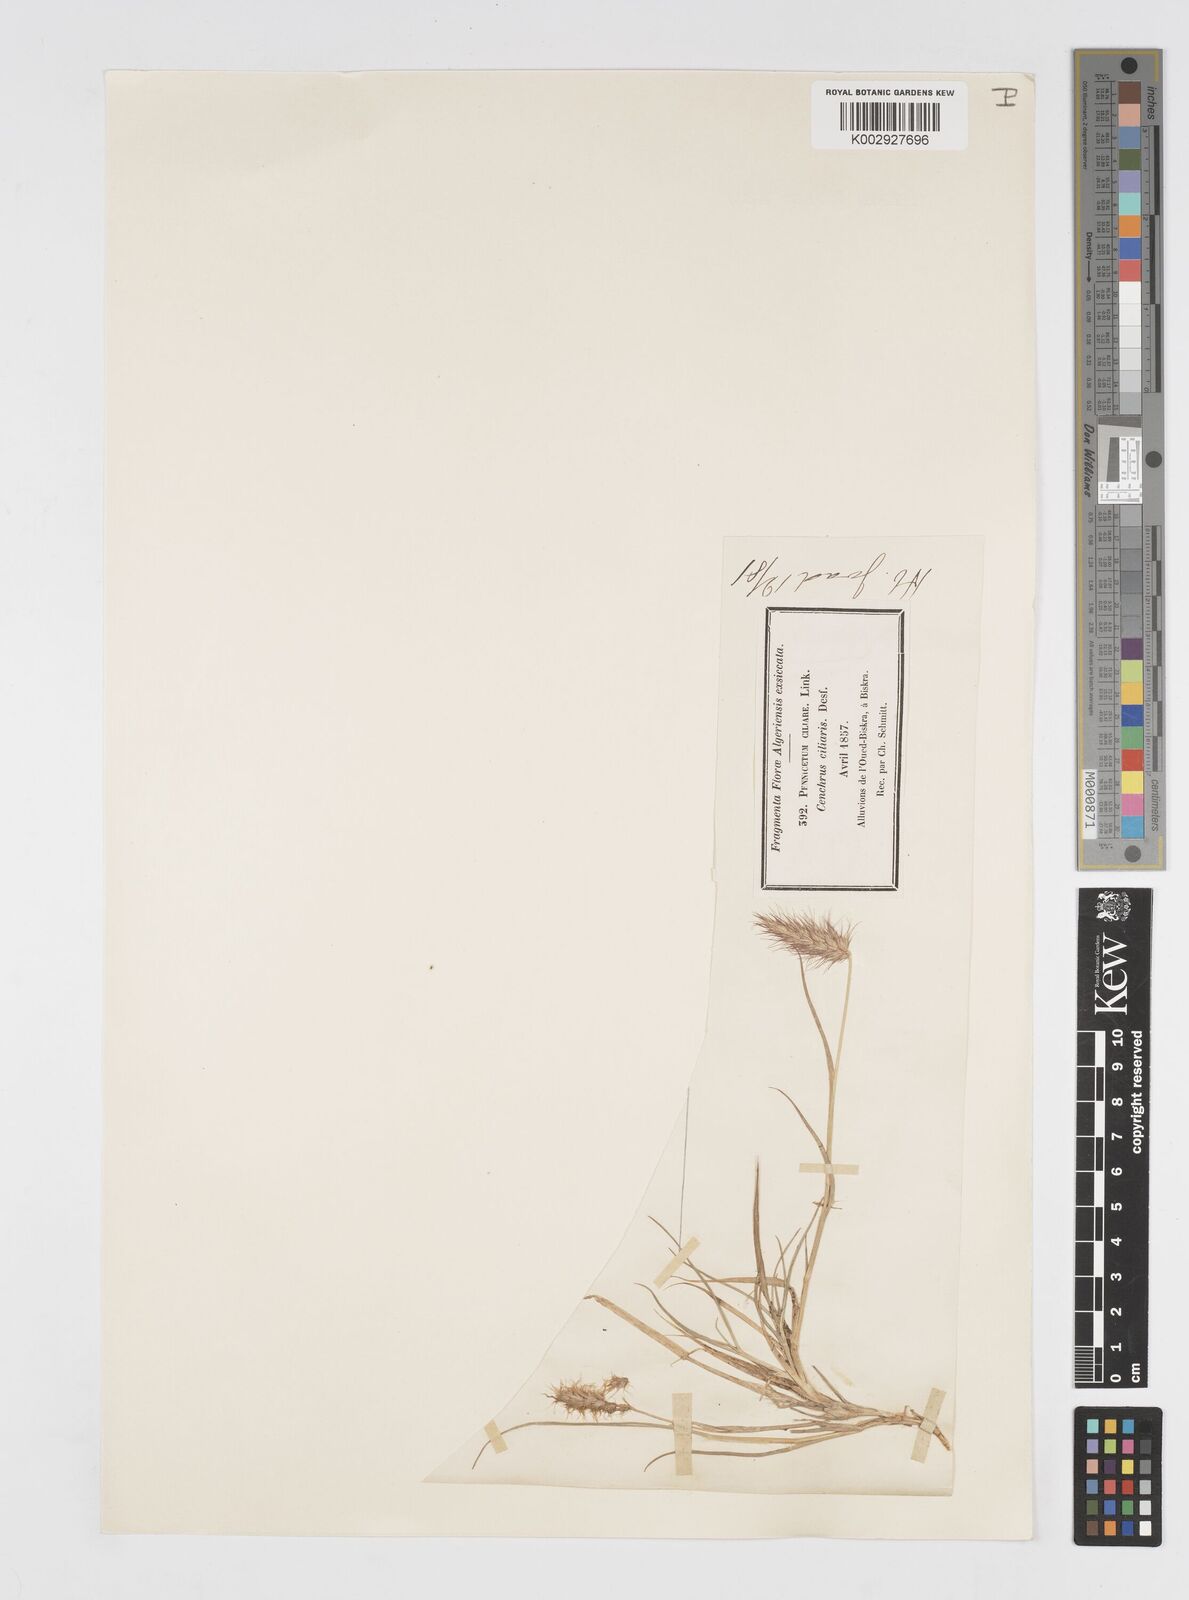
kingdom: Plantae
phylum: Tracheophyta
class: Liliopsida
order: Poales
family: Poaceae
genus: Cenchrus
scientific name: Cenchrus ciliaris
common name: Buffelgrass
